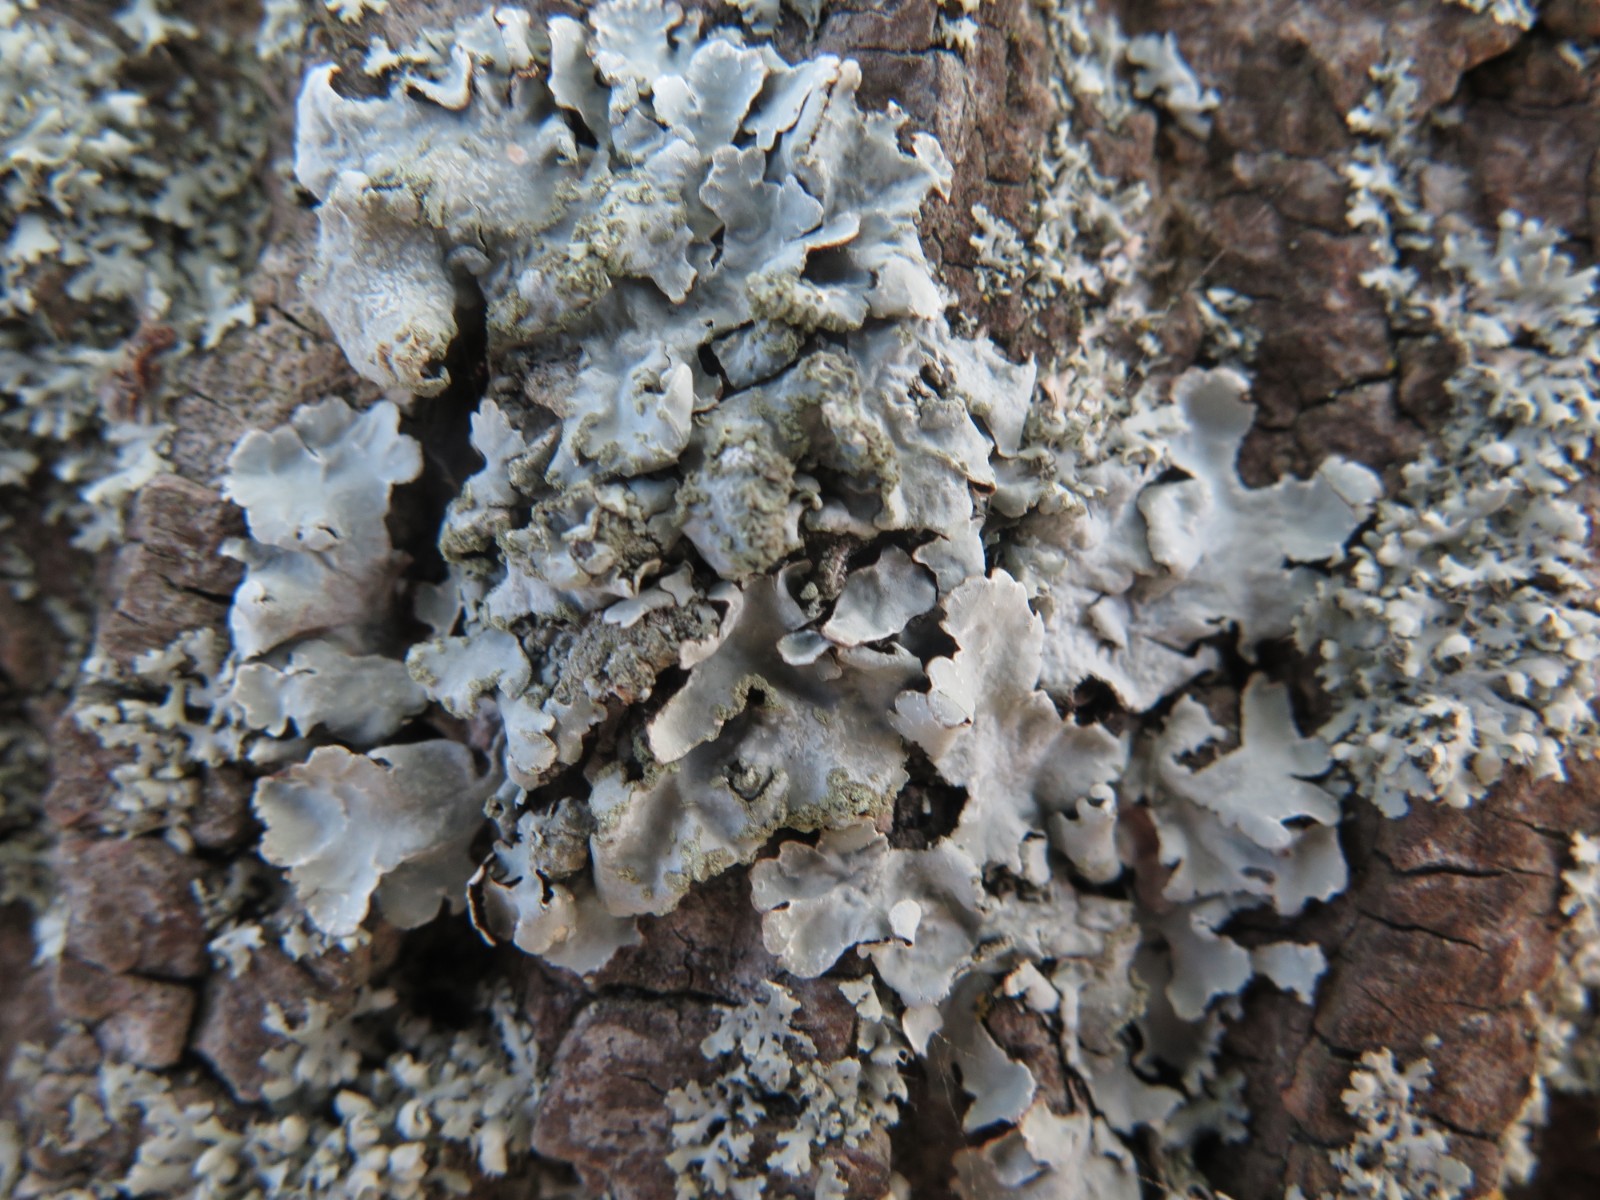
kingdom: Fungi
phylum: Ascomycota
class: Lecanoromycetes
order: Lecanorales
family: Parmeliaceae
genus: Parmelia
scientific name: Parmelia sulcata
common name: rynket skållav
